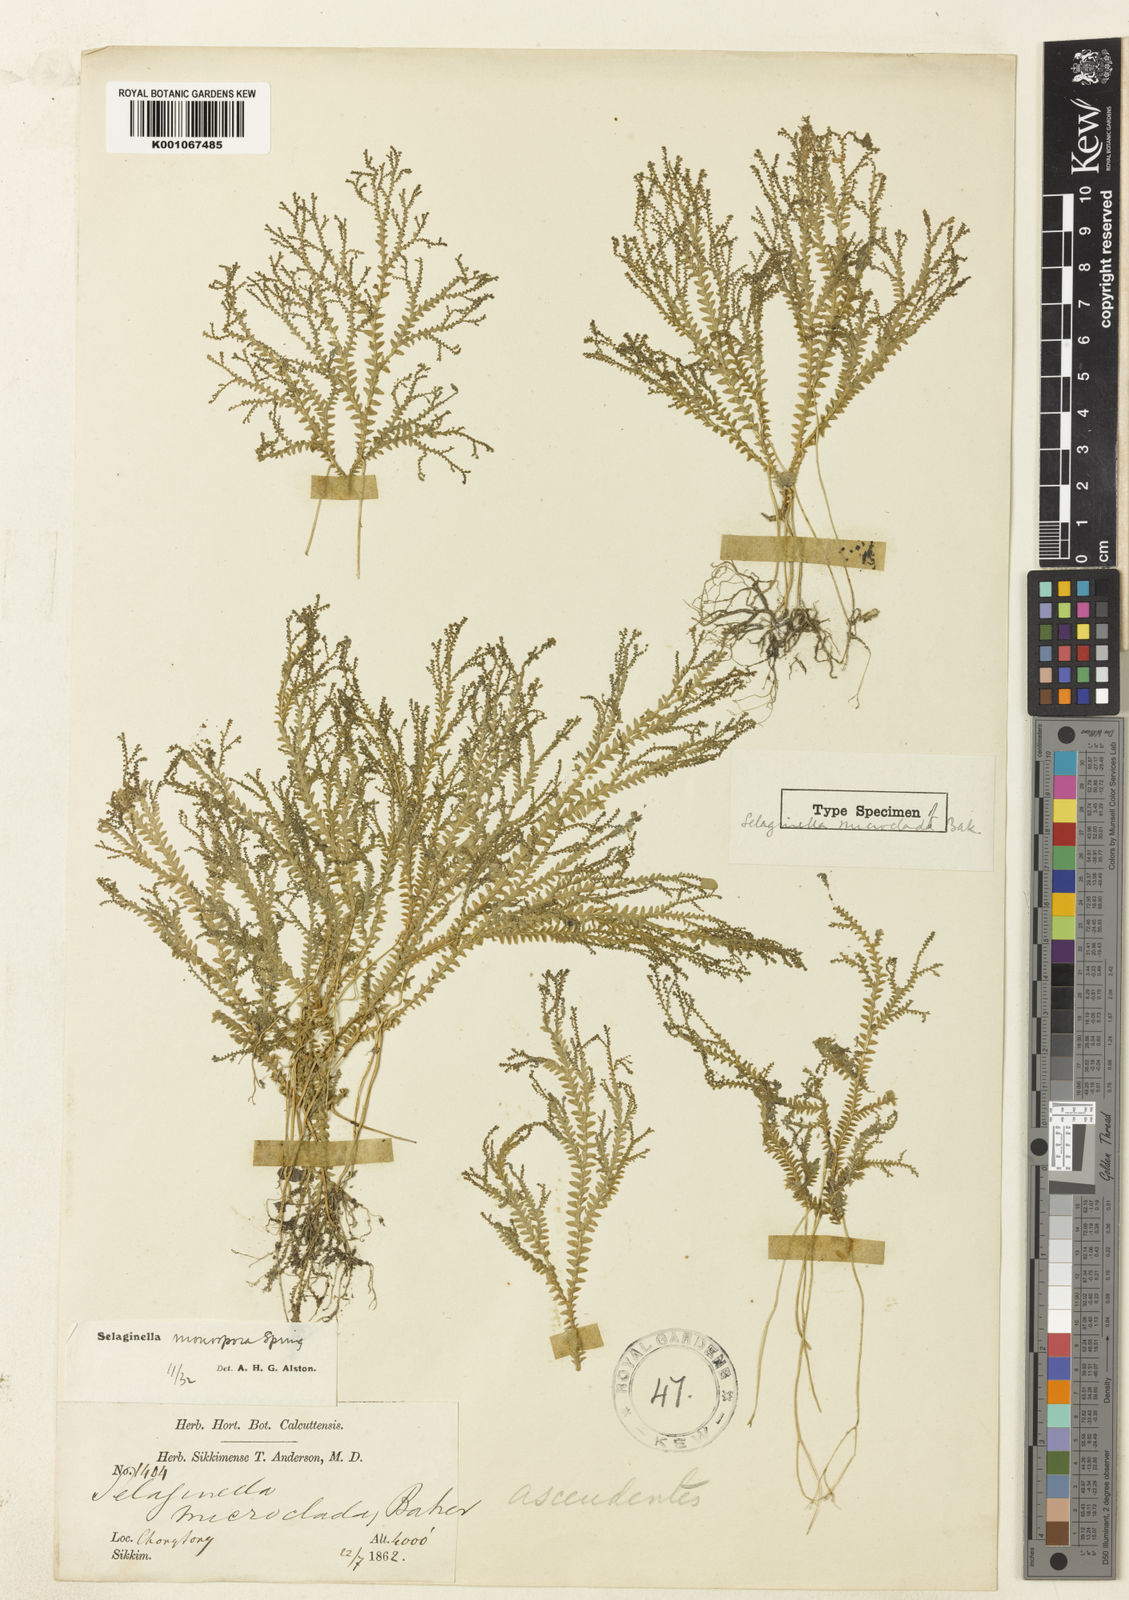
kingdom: Plantae
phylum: Tracheophyta
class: Lycopodiopsida
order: Selaginellales
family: Selaginellaceae
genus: Selaginella
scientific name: Selaginella monospora
